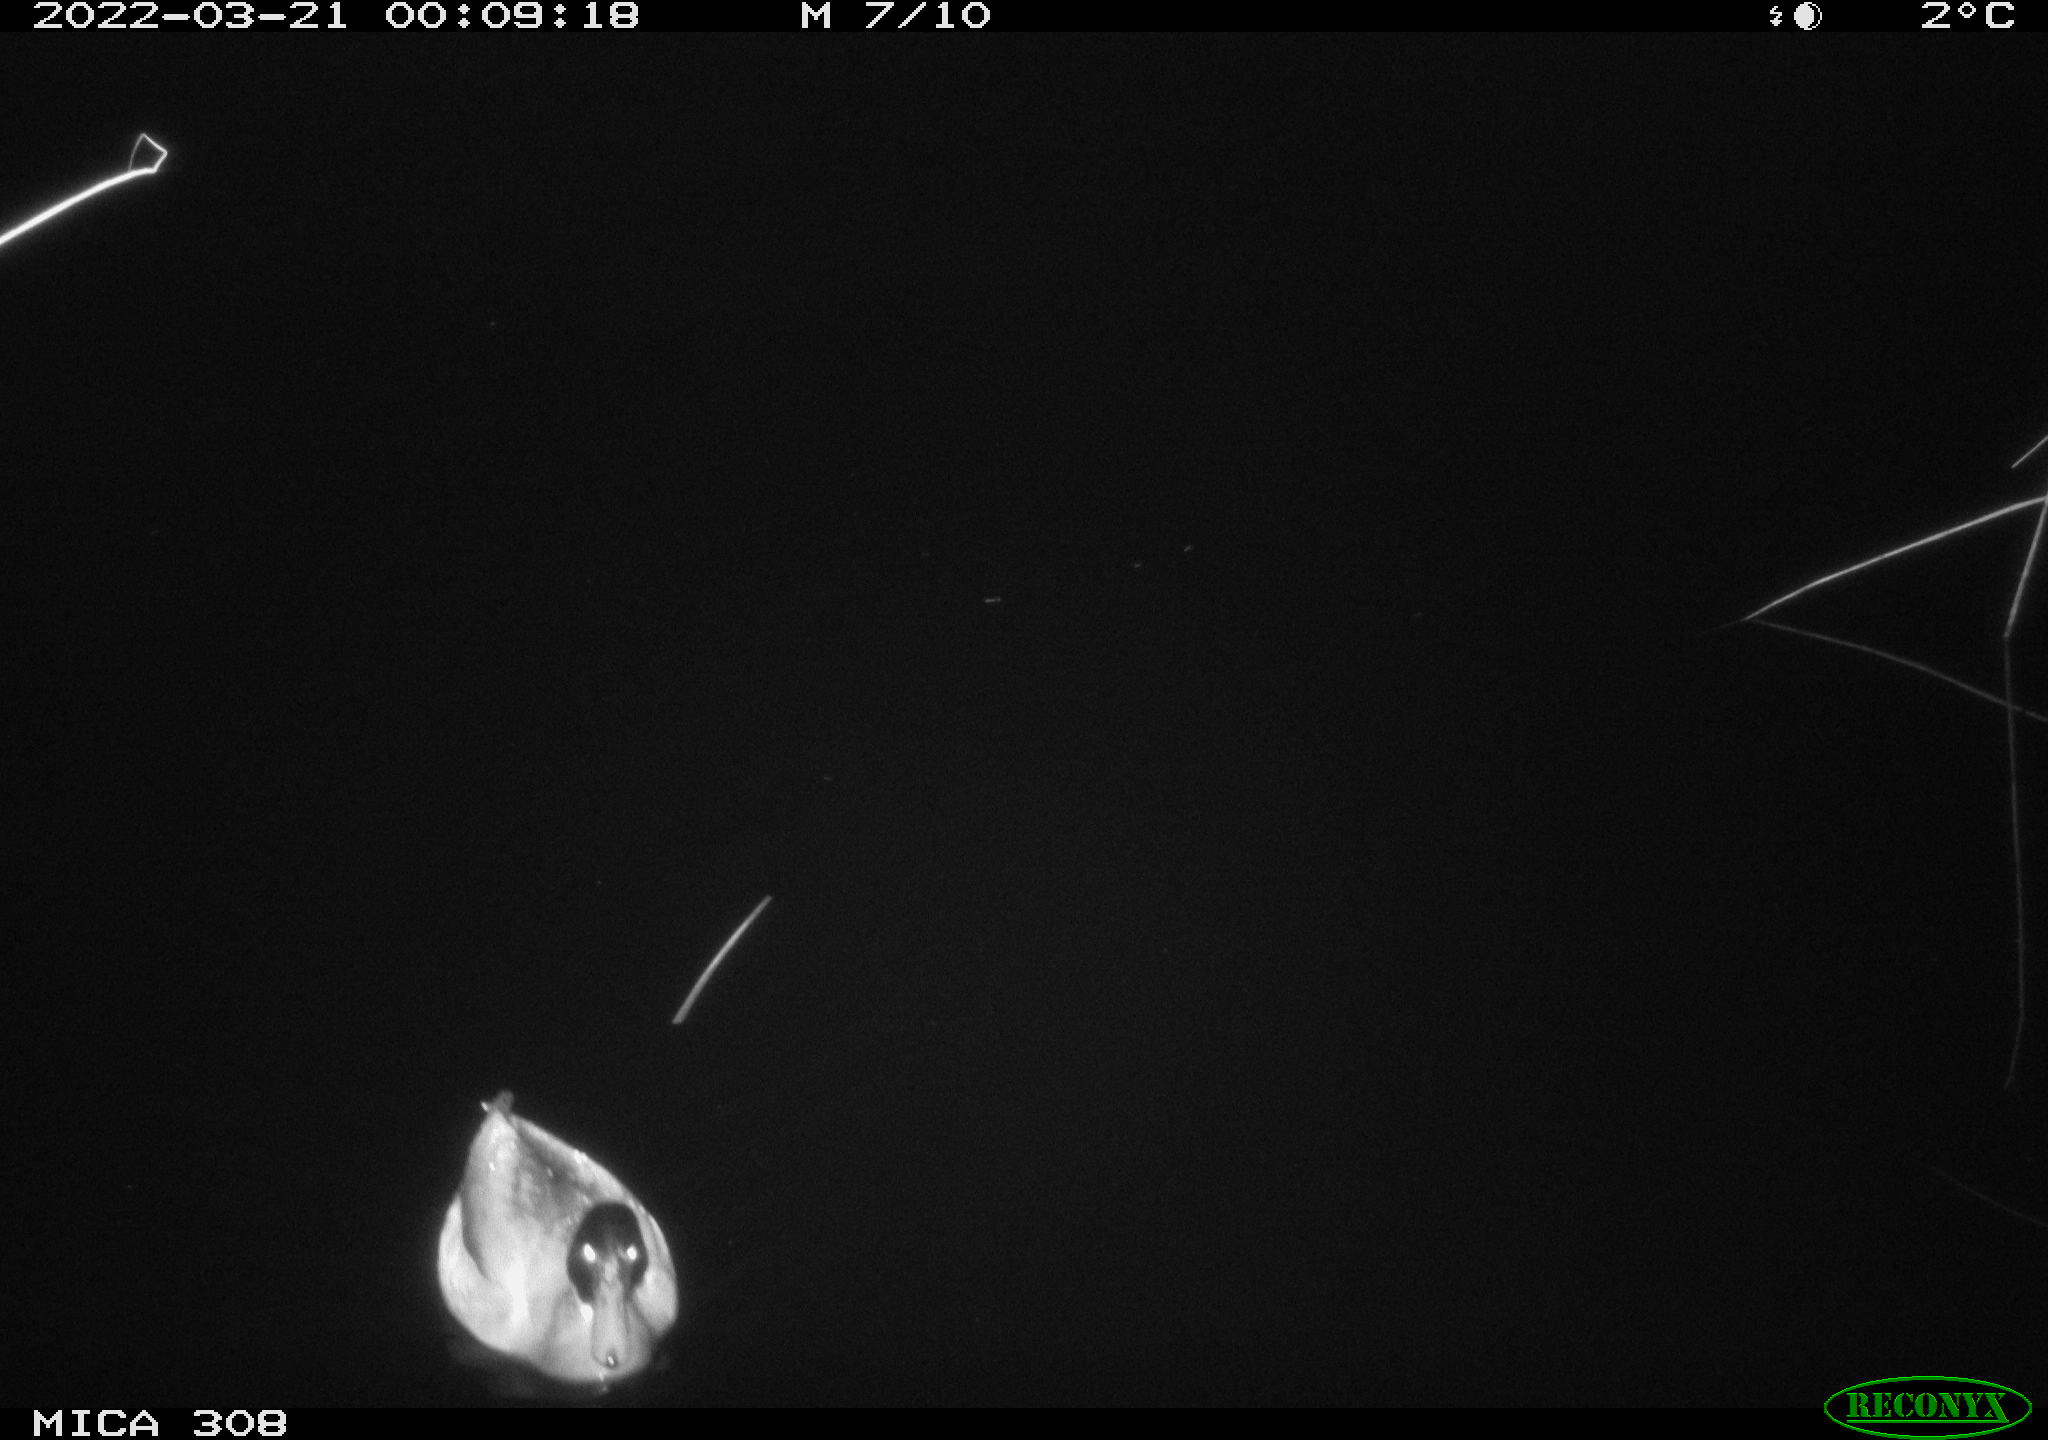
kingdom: Animalia
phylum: Chordata
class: Aves
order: Anseriformes
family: Anatidae
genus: Anas
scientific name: Anas platyrhynchos
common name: Mallard
